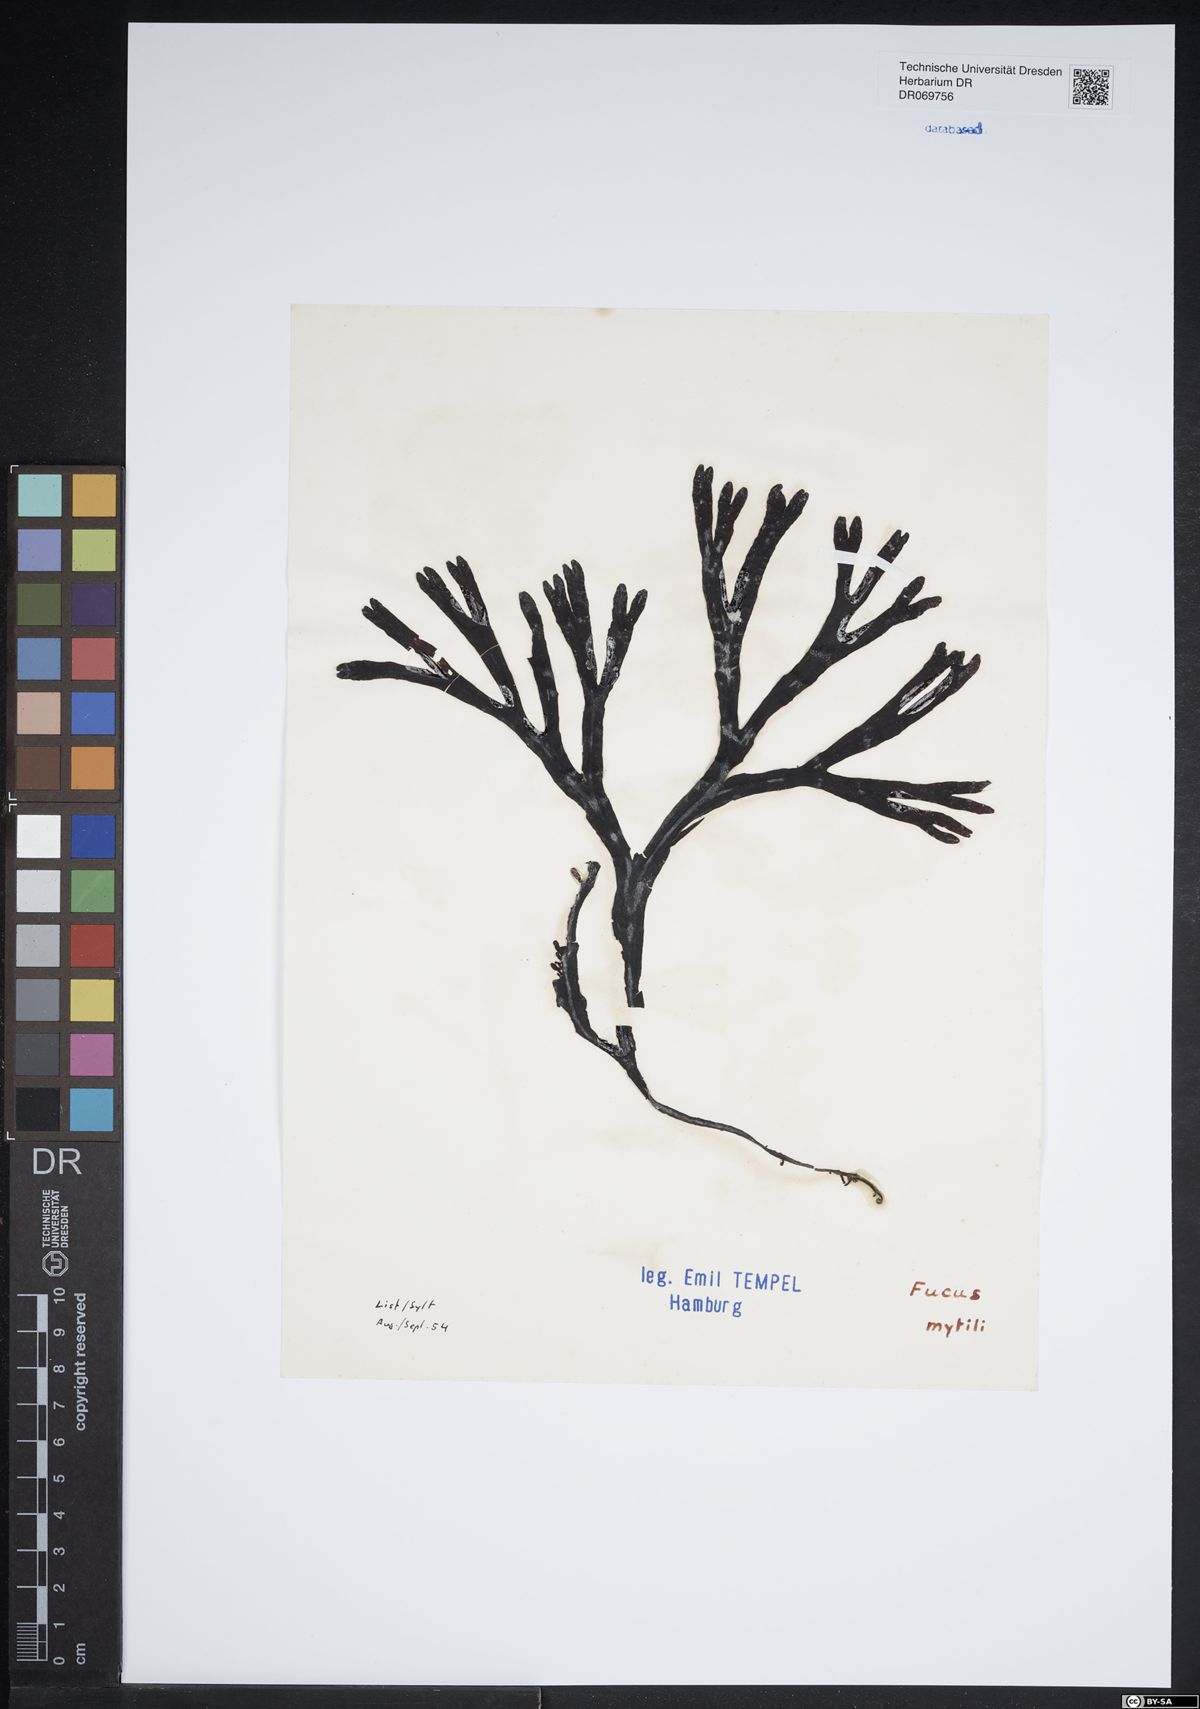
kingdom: Chromista
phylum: Ochrophyta
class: Phaeophyceae
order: Fucales
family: Fucaceae
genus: Fucus
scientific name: Fucus vesiculosus
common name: Bladder wrack
